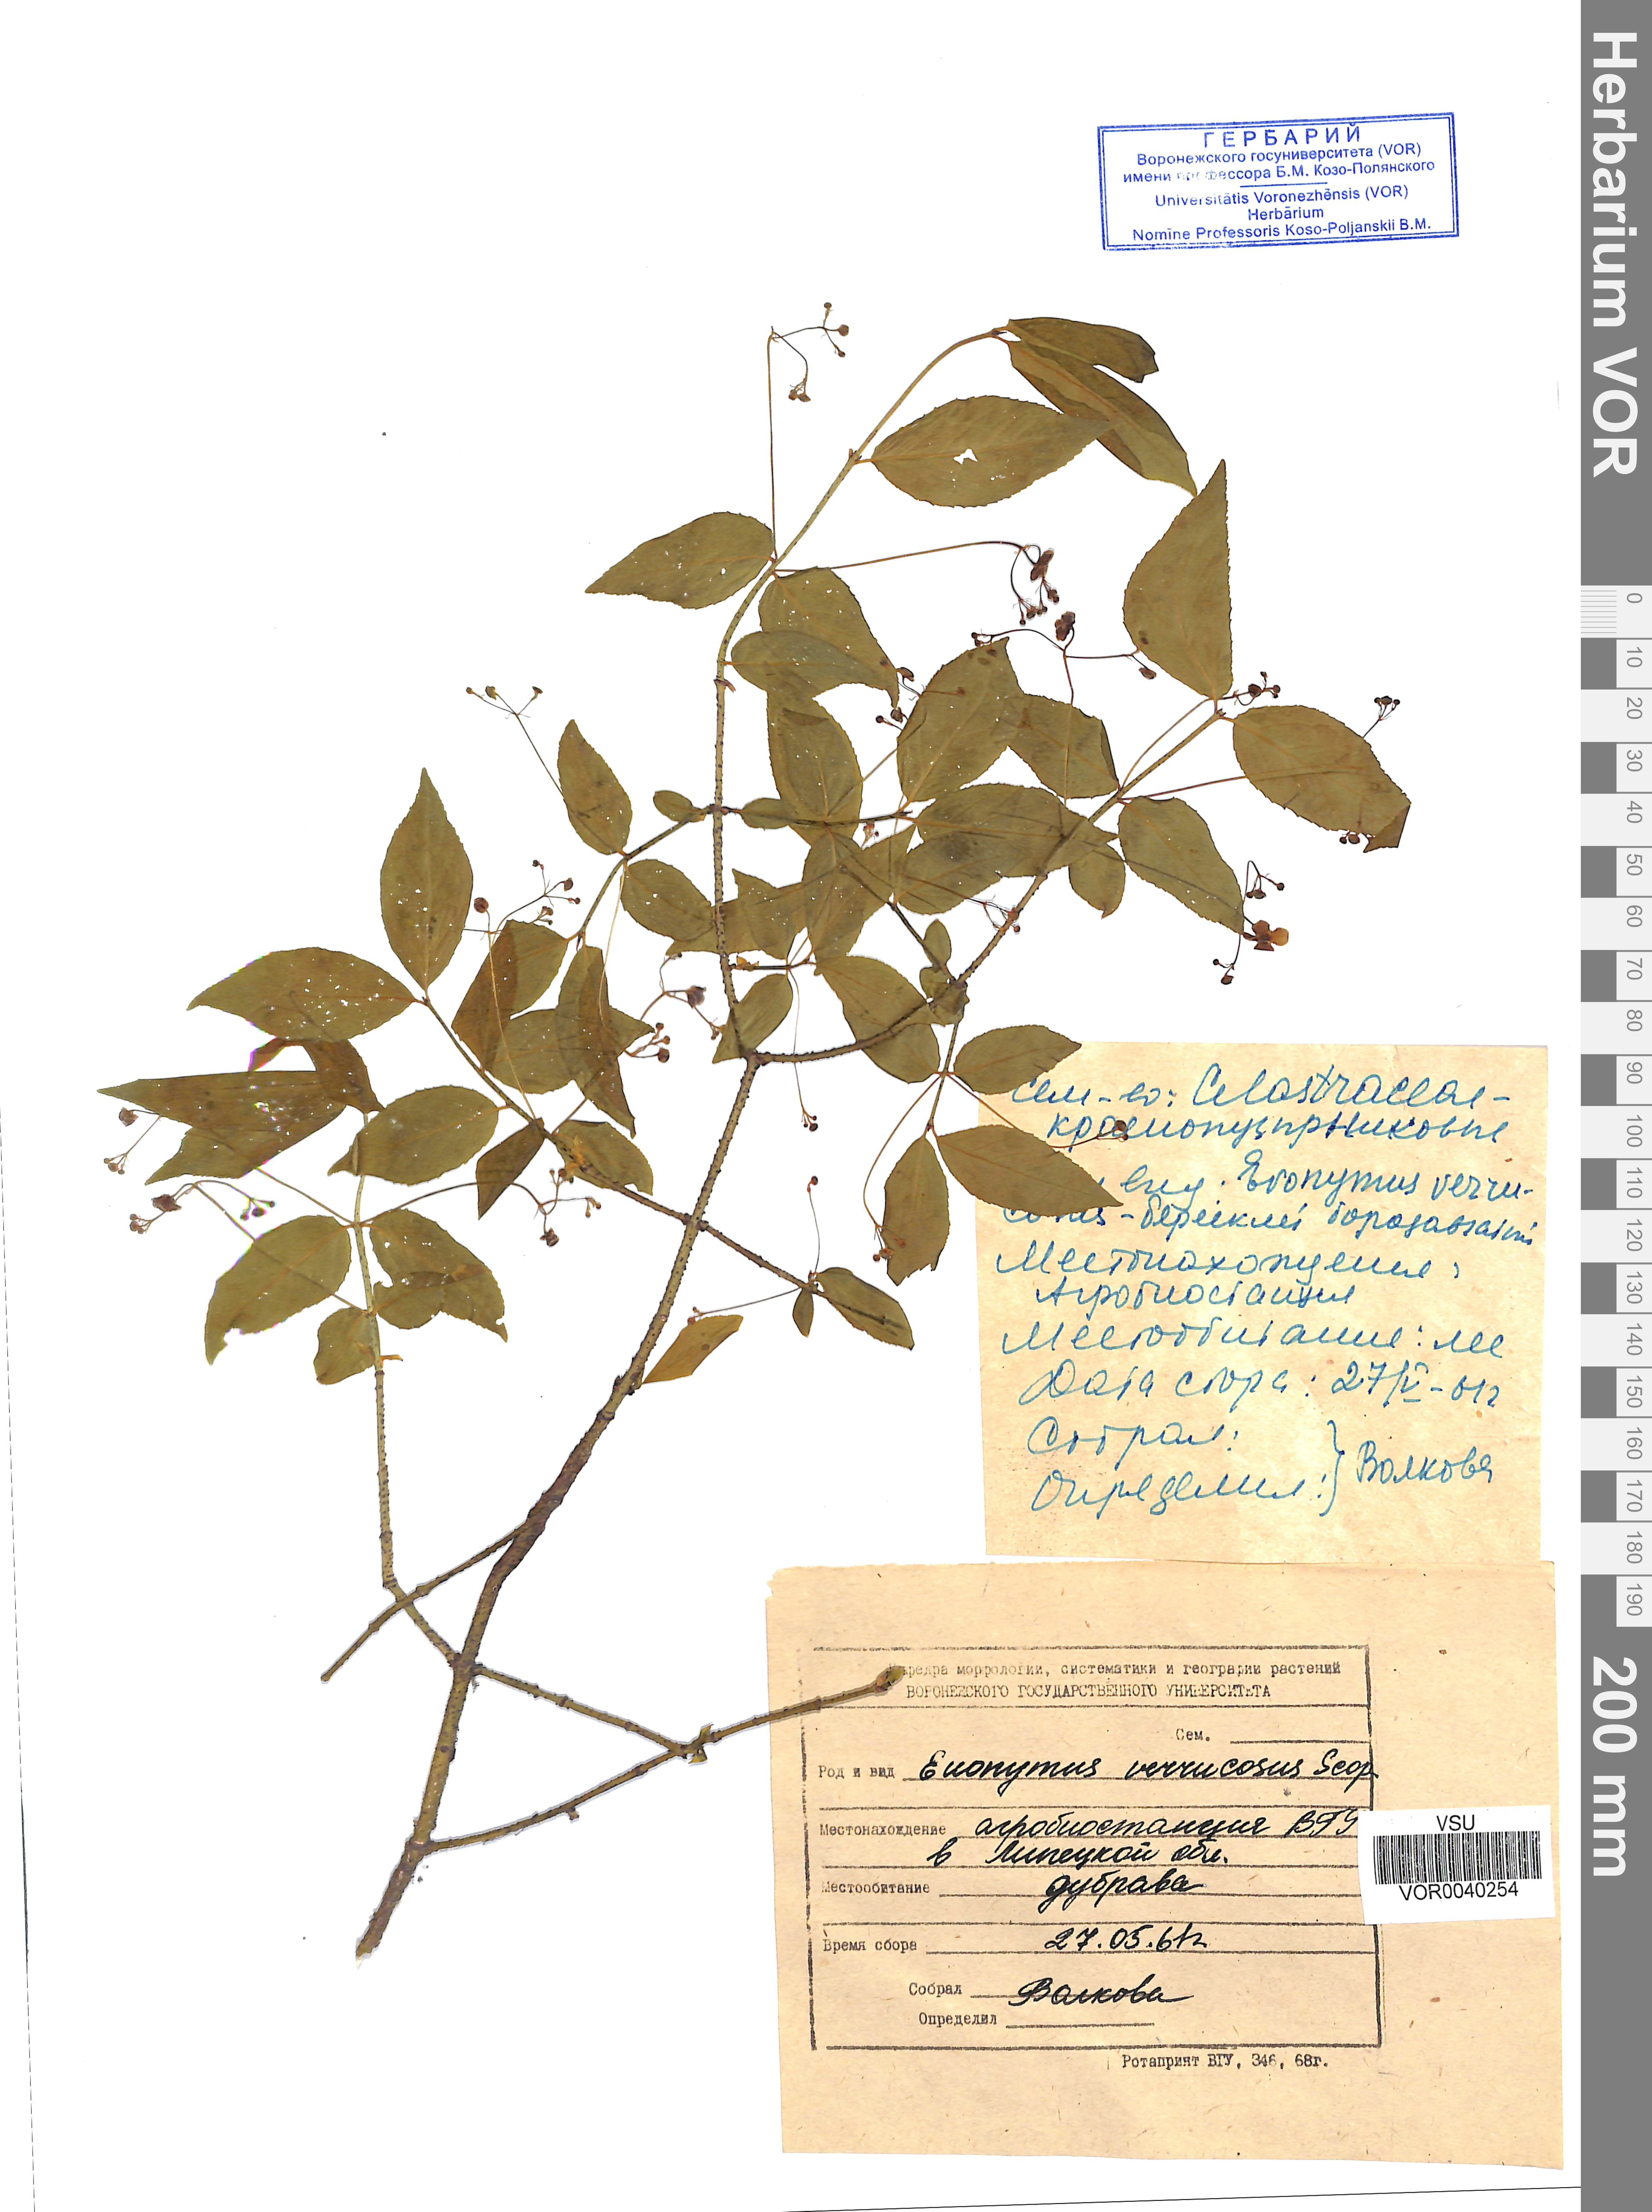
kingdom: Plantae
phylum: Tracheophyta
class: Magnoliopsida
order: Celastrales
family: Celastraceae
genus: Euonymus
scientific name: Euonymus verrucosus
